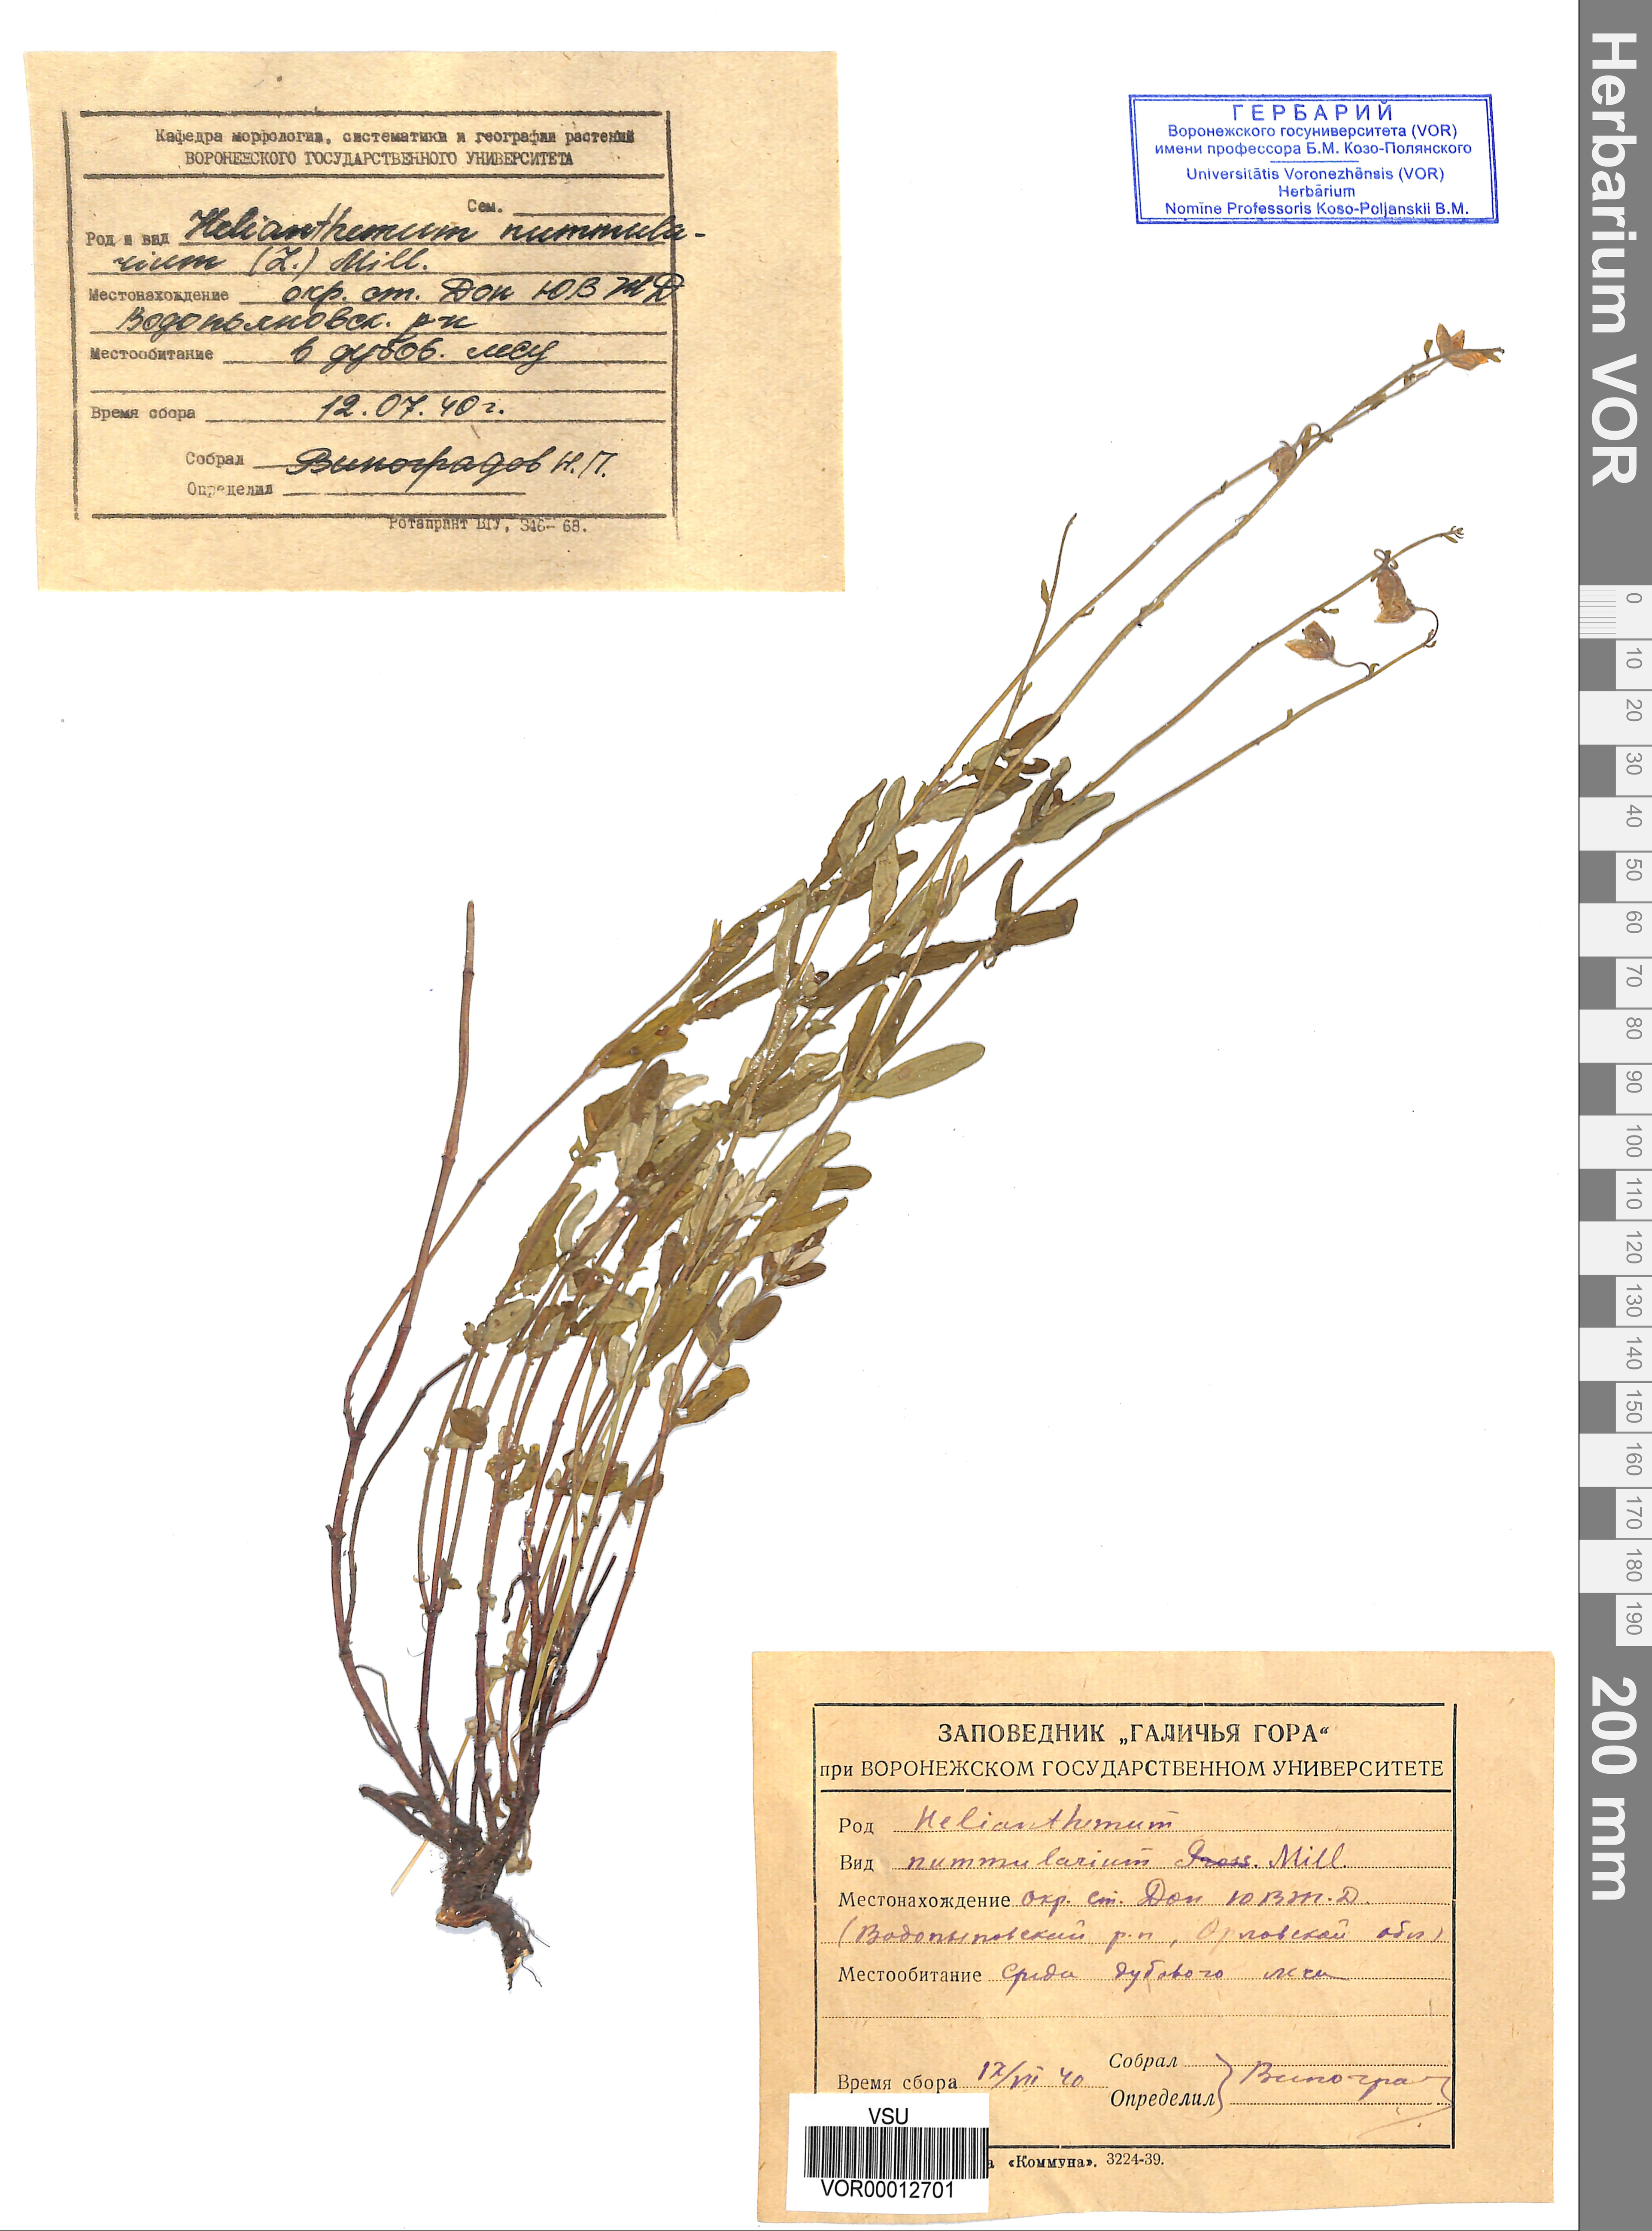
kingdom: Plantae
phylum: Tracheophyta
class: Magnoliopsida
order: Malvales
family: Cistaceae
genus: Helianthemum
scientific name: Helianthemum nummularium
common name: Common rock-rose
